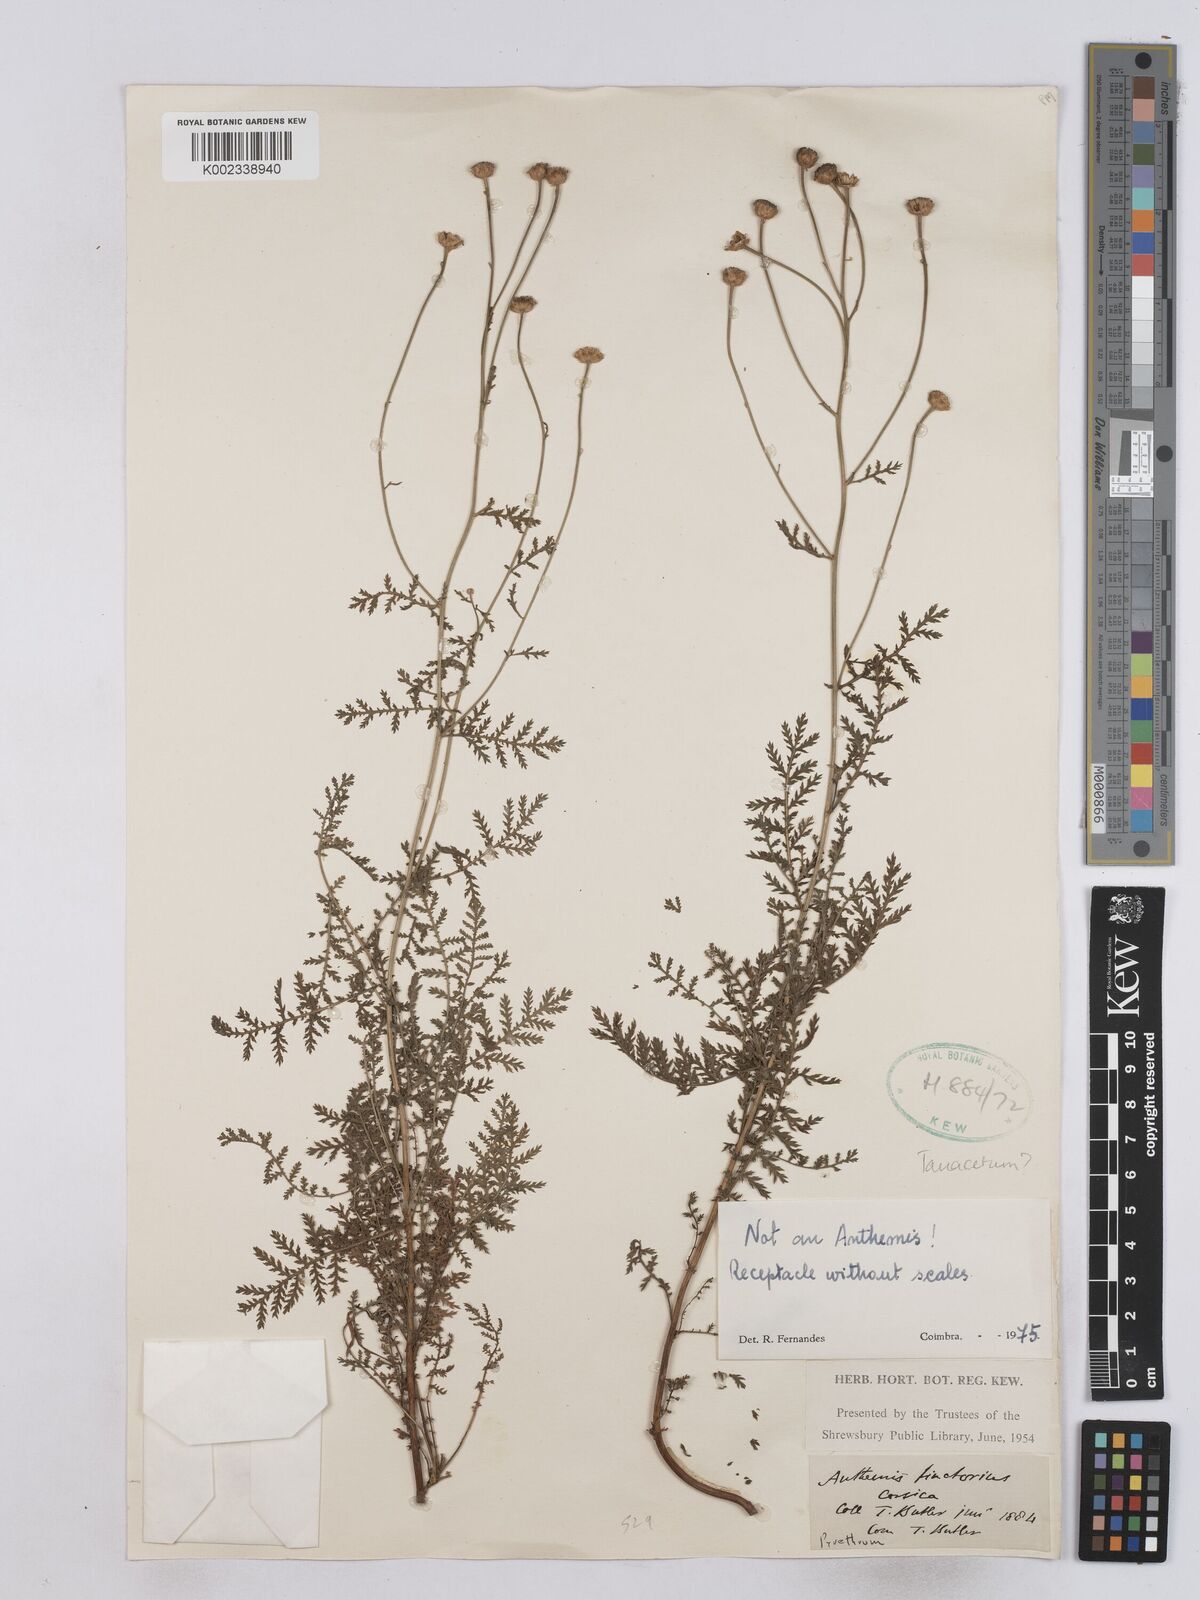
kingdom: Plantae
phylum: Tracheophyta
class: Magnoliopsida
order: Asterales
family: Asteraceae
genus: Tanacetum
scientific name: Tanacetum
